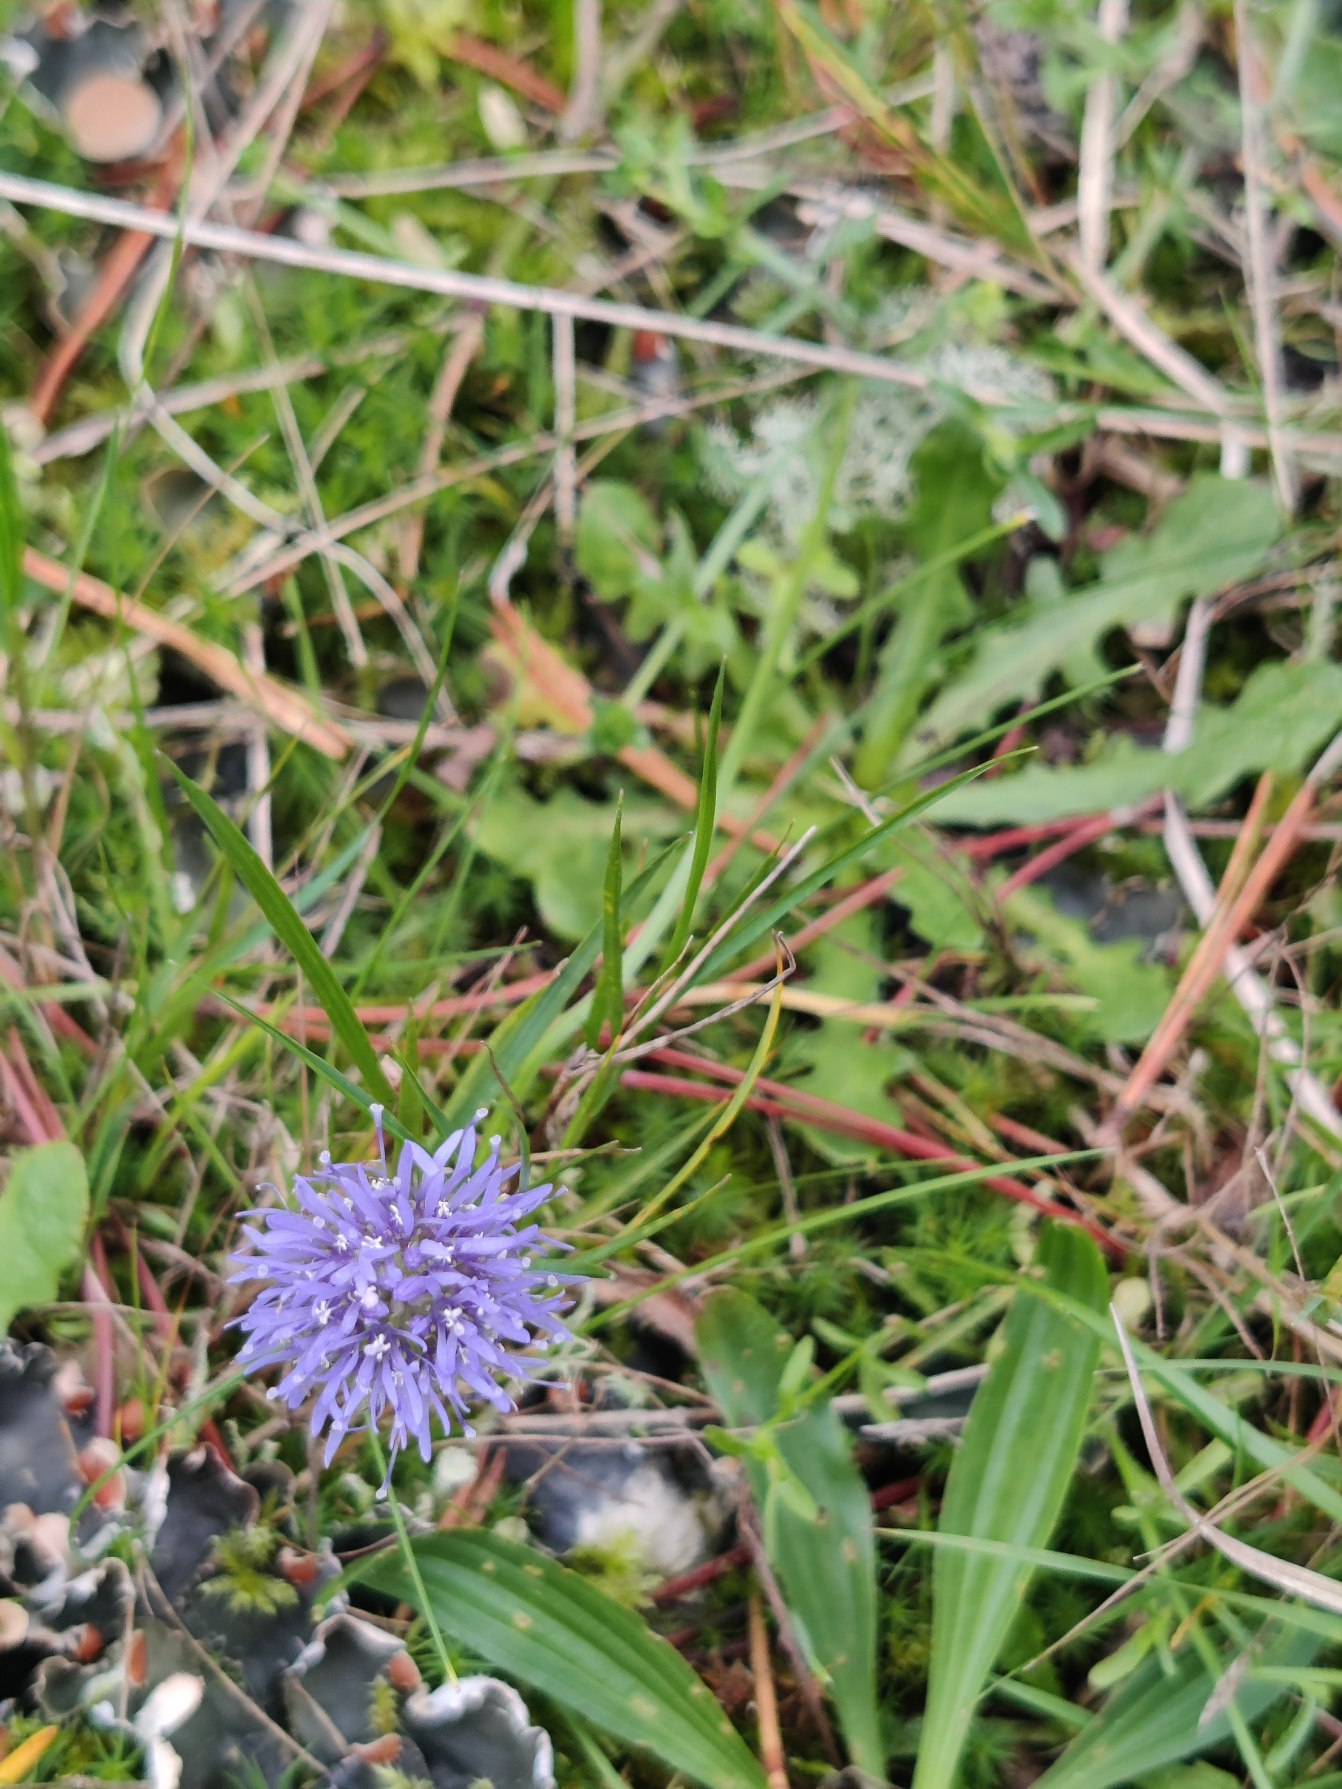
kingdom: Plantae
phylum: Tracheophyta
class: Magnoliopsida
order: Asterales
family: Campanulaceae
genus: Jasione
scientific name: Jasione montana
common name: Blåmunke
